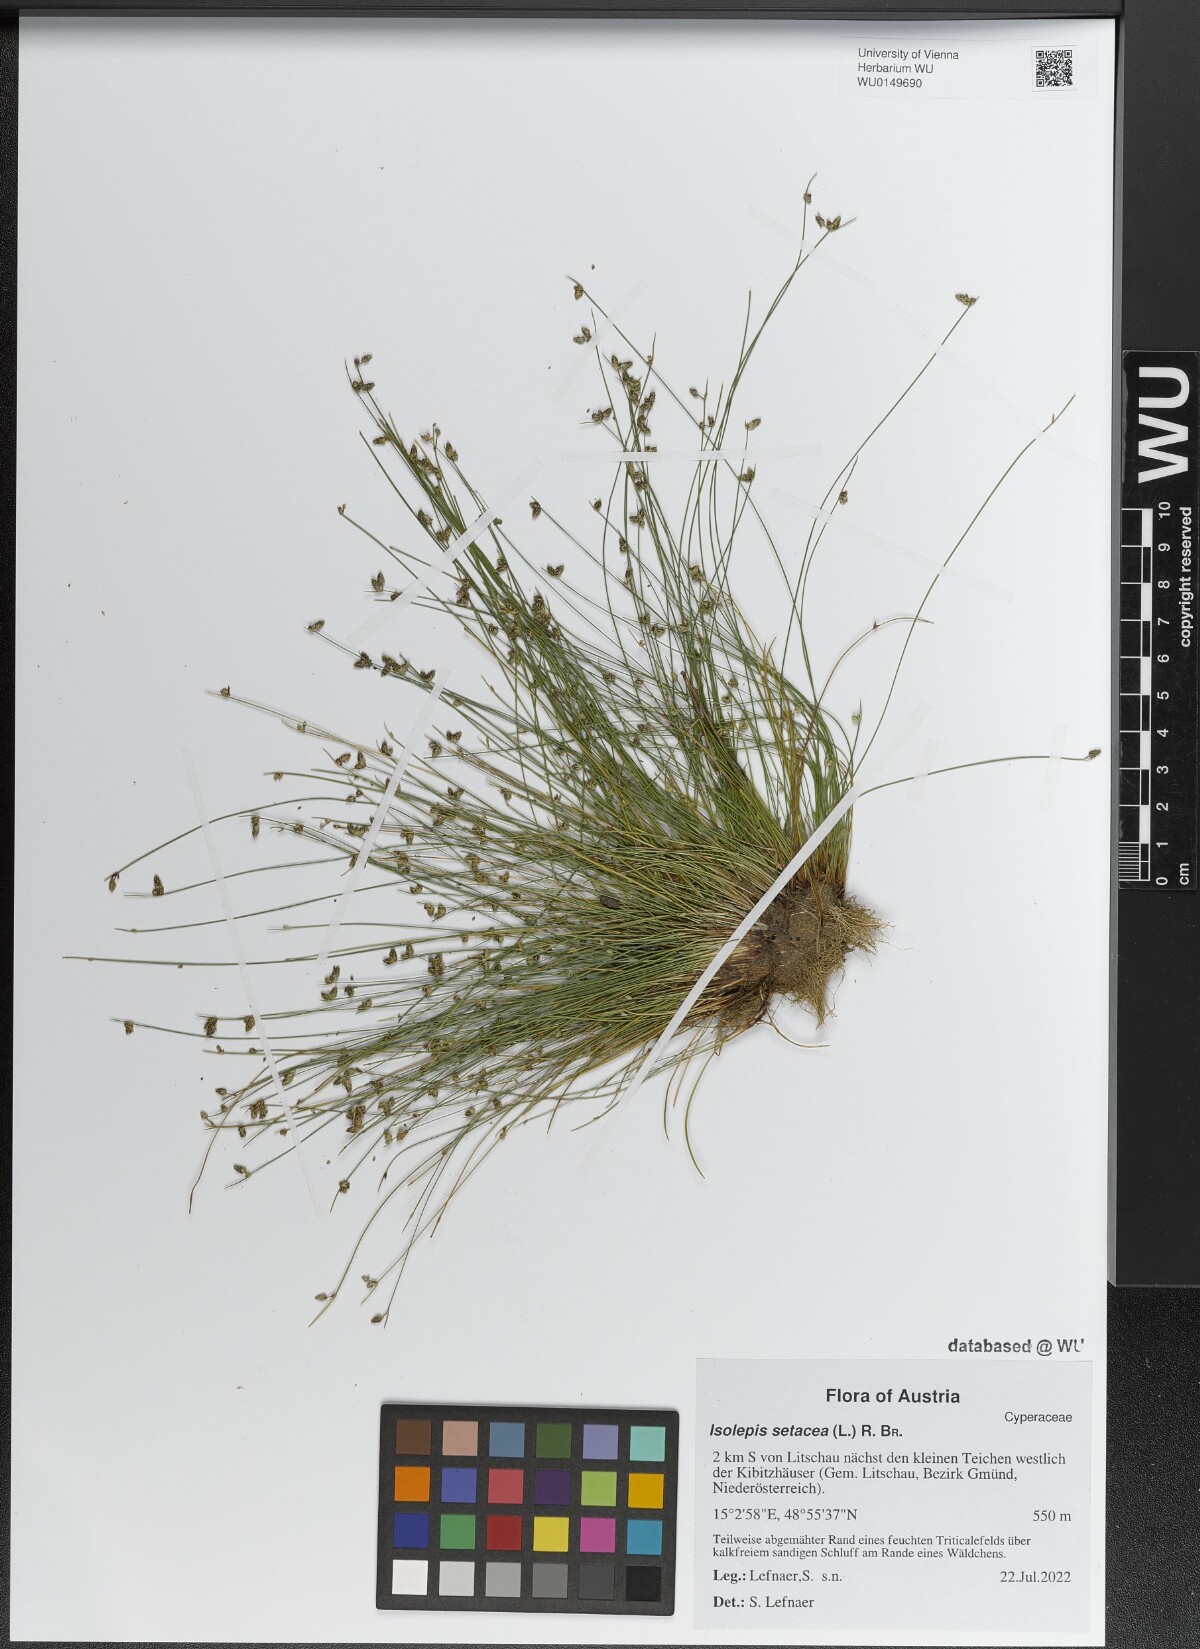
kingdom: Plantae
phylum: Tracheophyta
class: Liliopsida
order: Poales
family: Cyperaceae
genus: Isolepis
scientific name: Isolepis setacea
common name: Bristle club-rush
